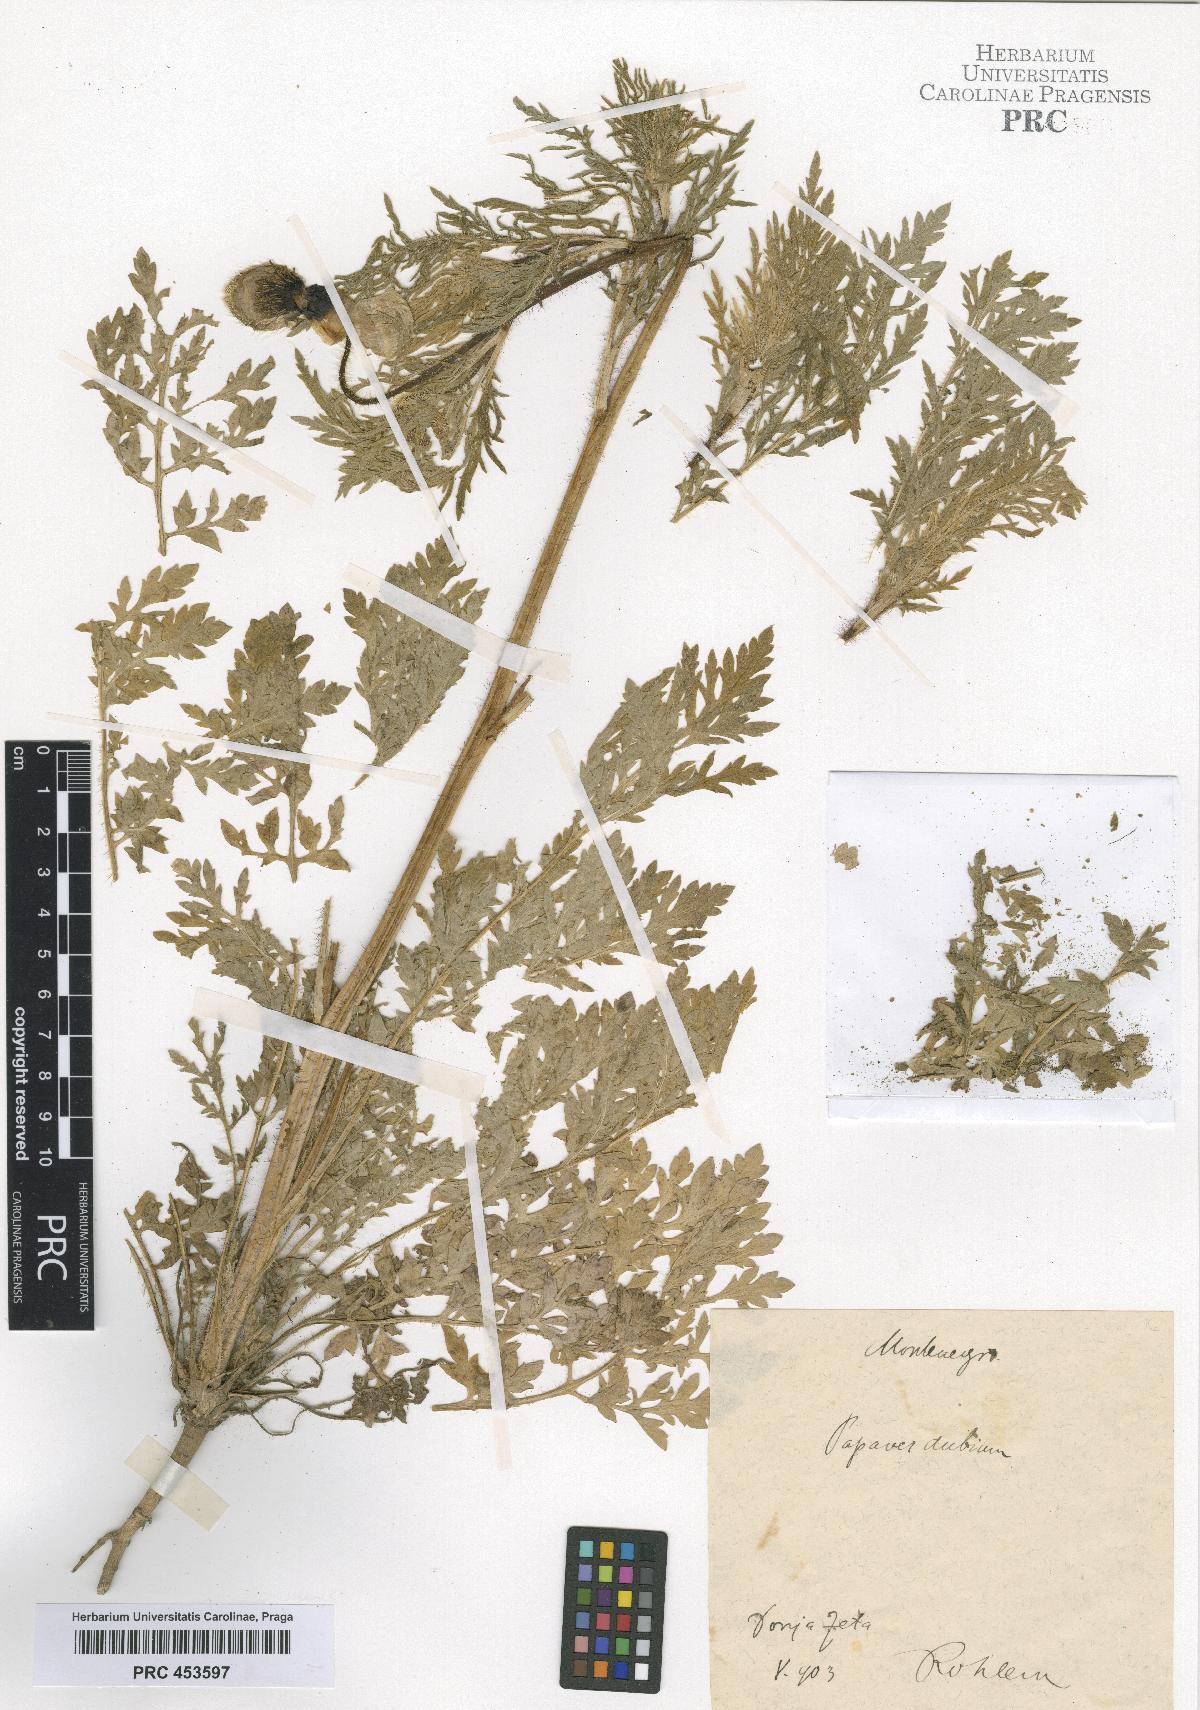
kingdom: Plantae
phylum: Tracheophyta
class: Magnoliopsida
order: Ranunculales
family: Papaveraceae
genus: Papaver
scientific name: Papaver dubium
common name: Long-headed poppy
